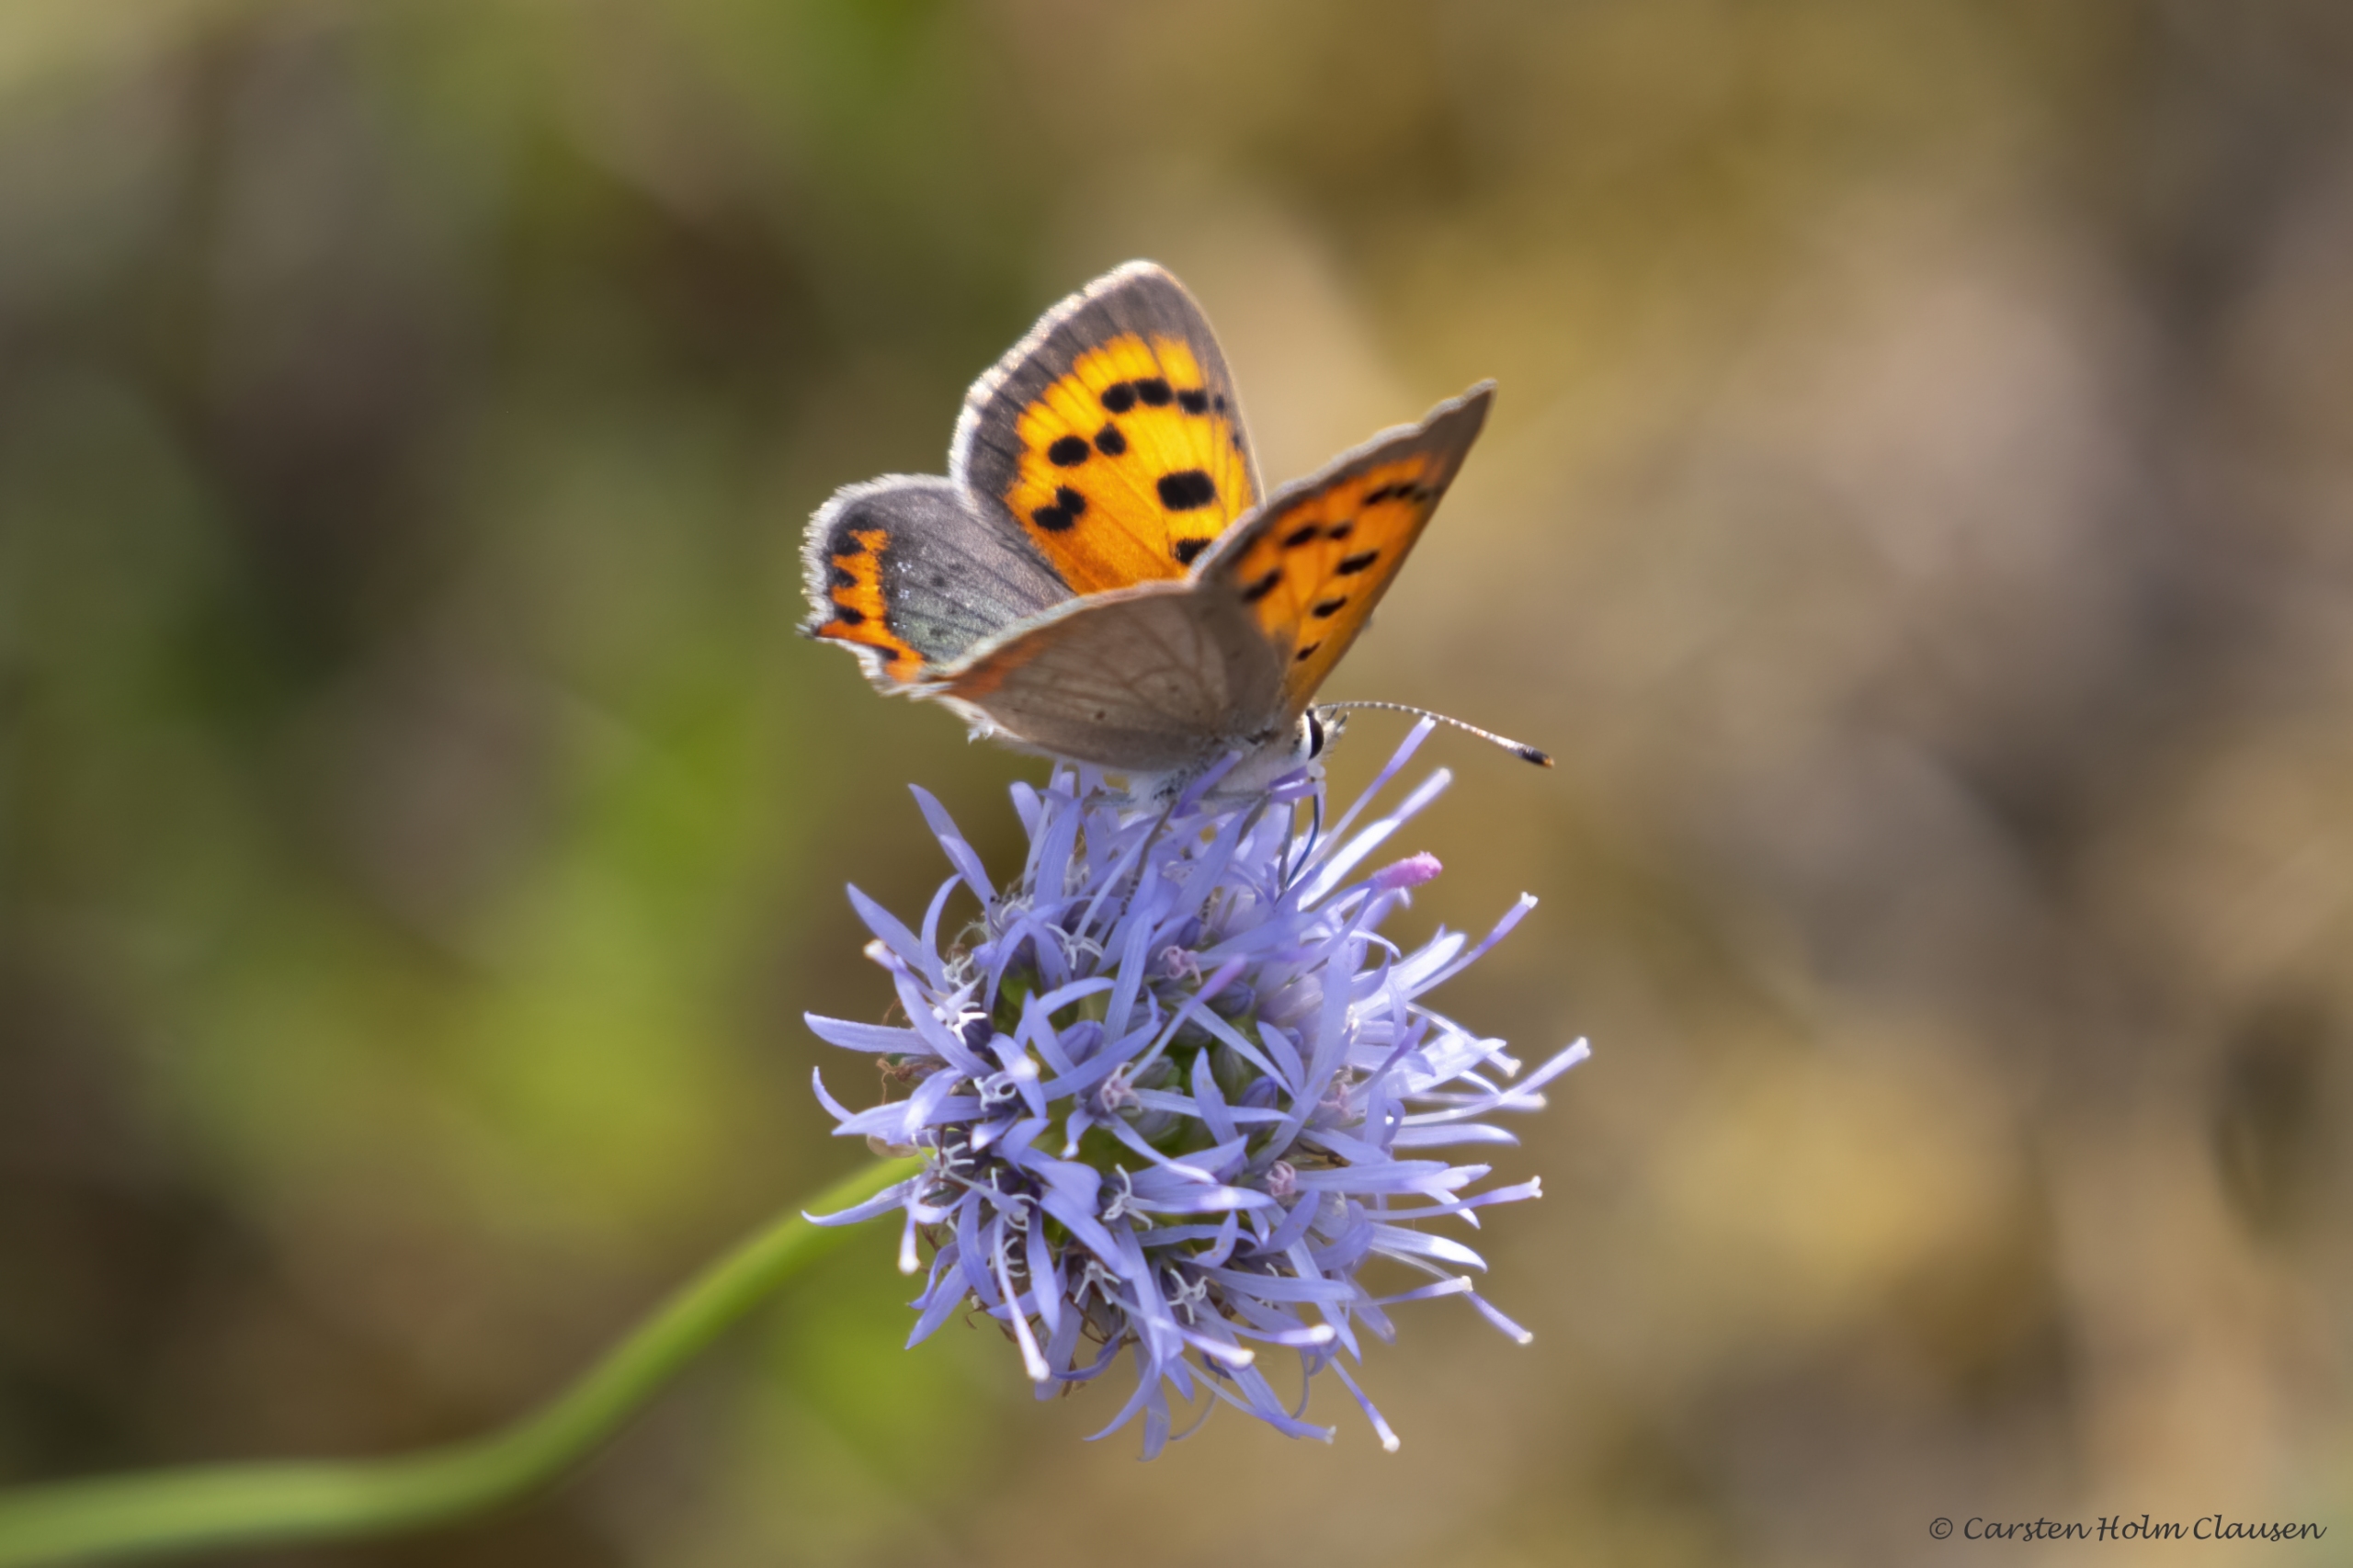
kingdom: Animalia
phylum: Arthropoda
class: Insecta
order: Lepidoptera
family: Lycaenidae
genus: Lycaena
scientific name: Lycaena phlaeas
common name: Lille ildfugl
